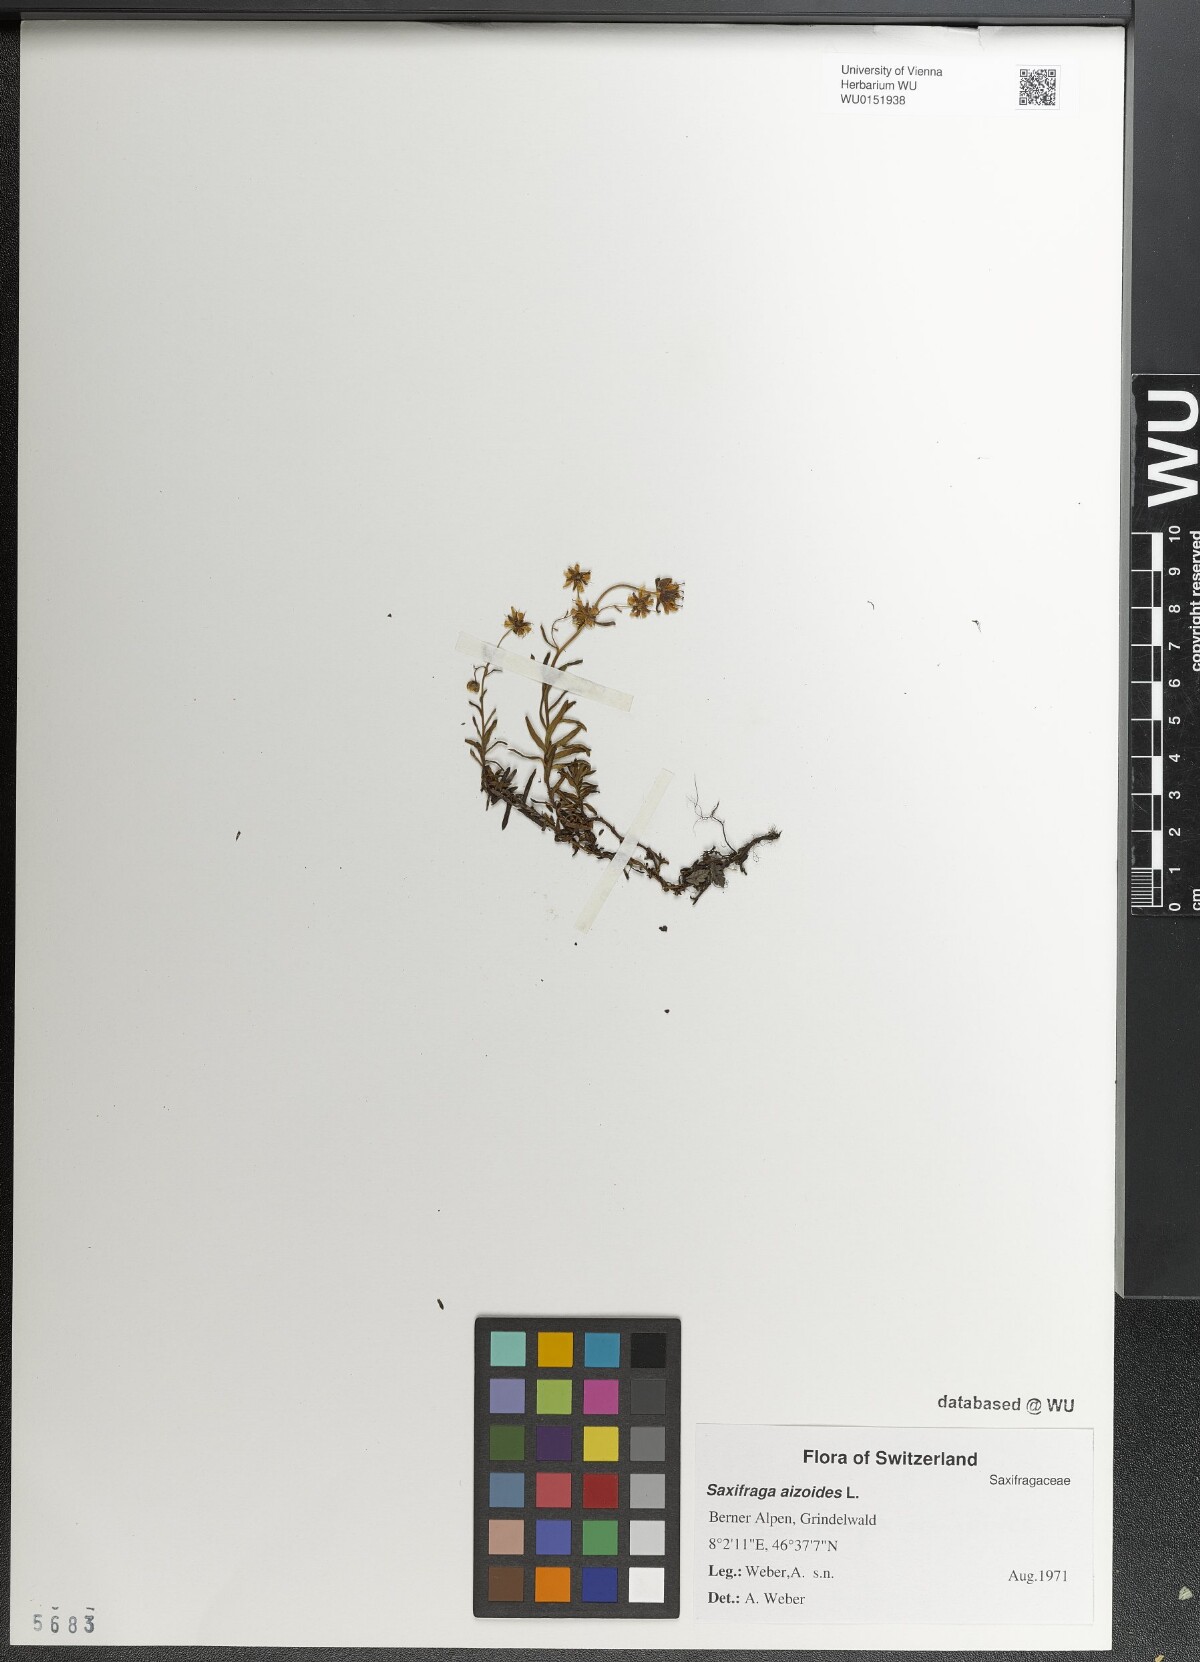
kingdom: Plantae
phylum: Tracheophyta
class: Magnoliopsida
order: Saxifragales
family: Saxifragaceae
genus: Saxifraga
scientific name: Saxifraga aizoides
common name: Yellow mountain saxifrage
